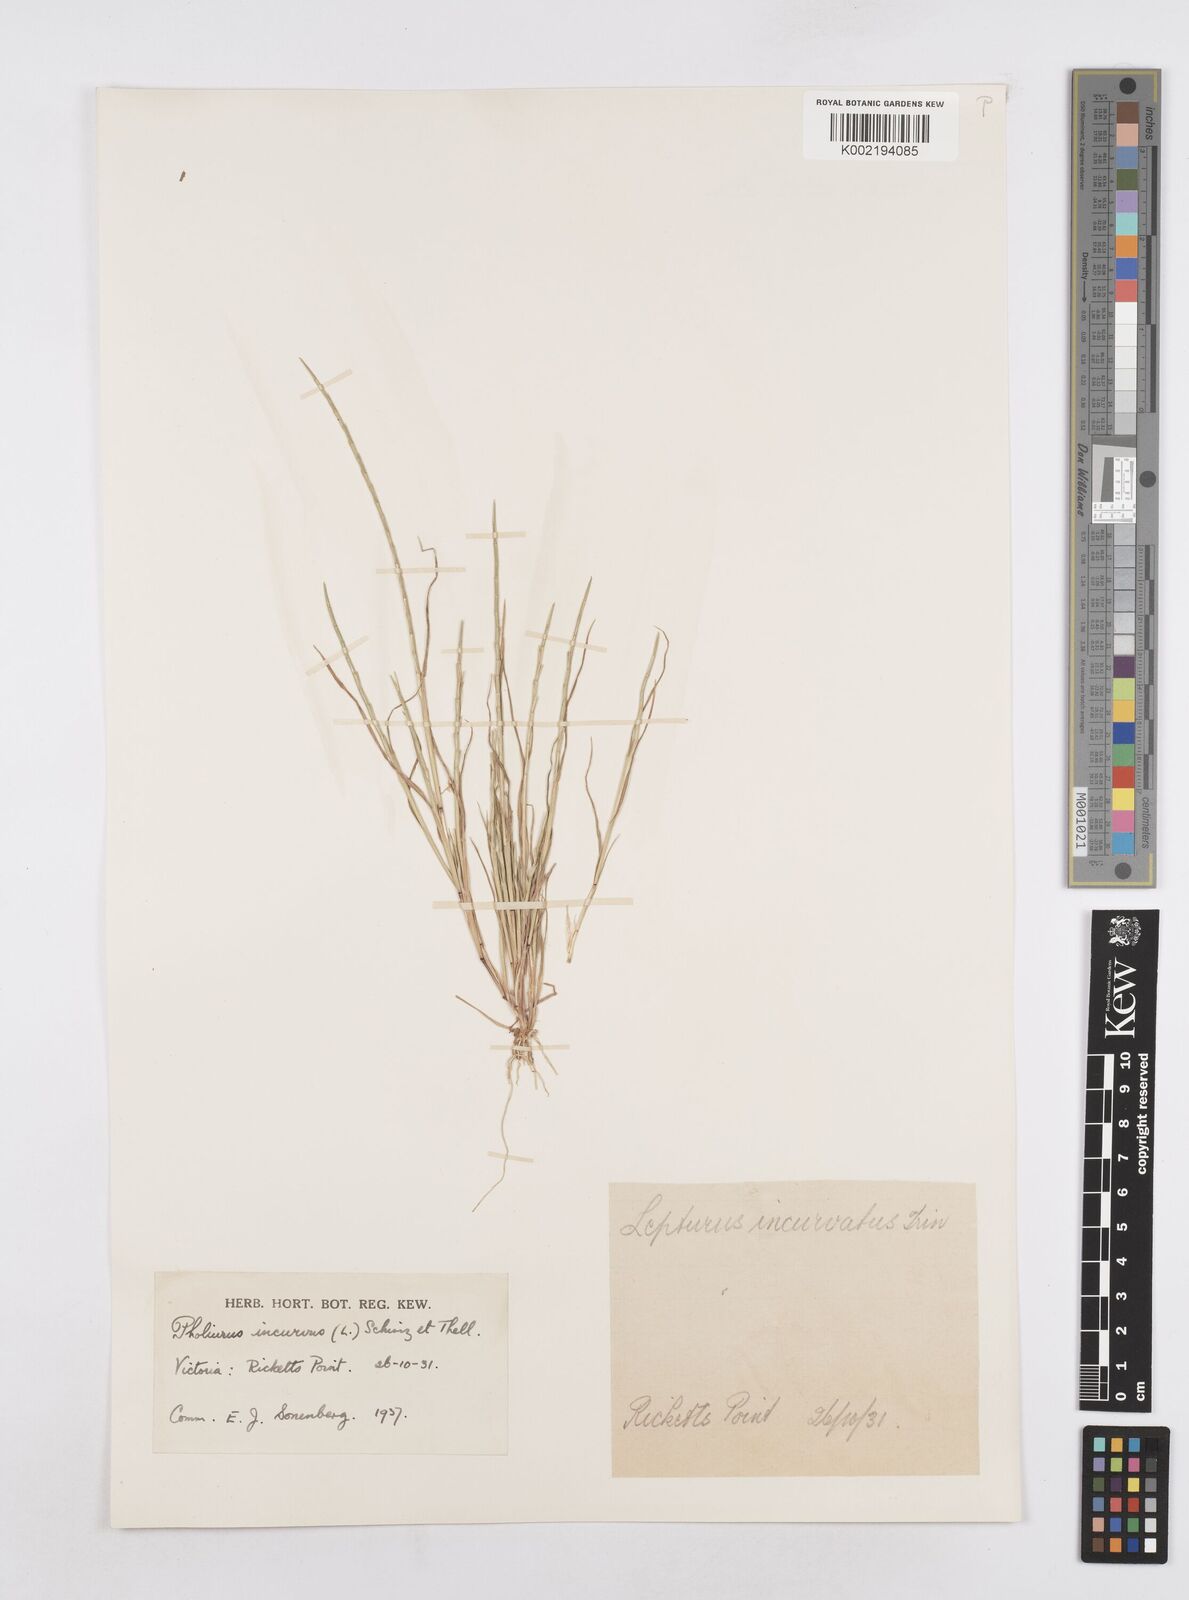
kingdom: Plantae
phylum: Tracheophyta
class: Liliopsida
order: Poales
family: Poaceae
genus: Parapholis
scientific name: Parapholis incurva
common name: Curved sicklegrass
